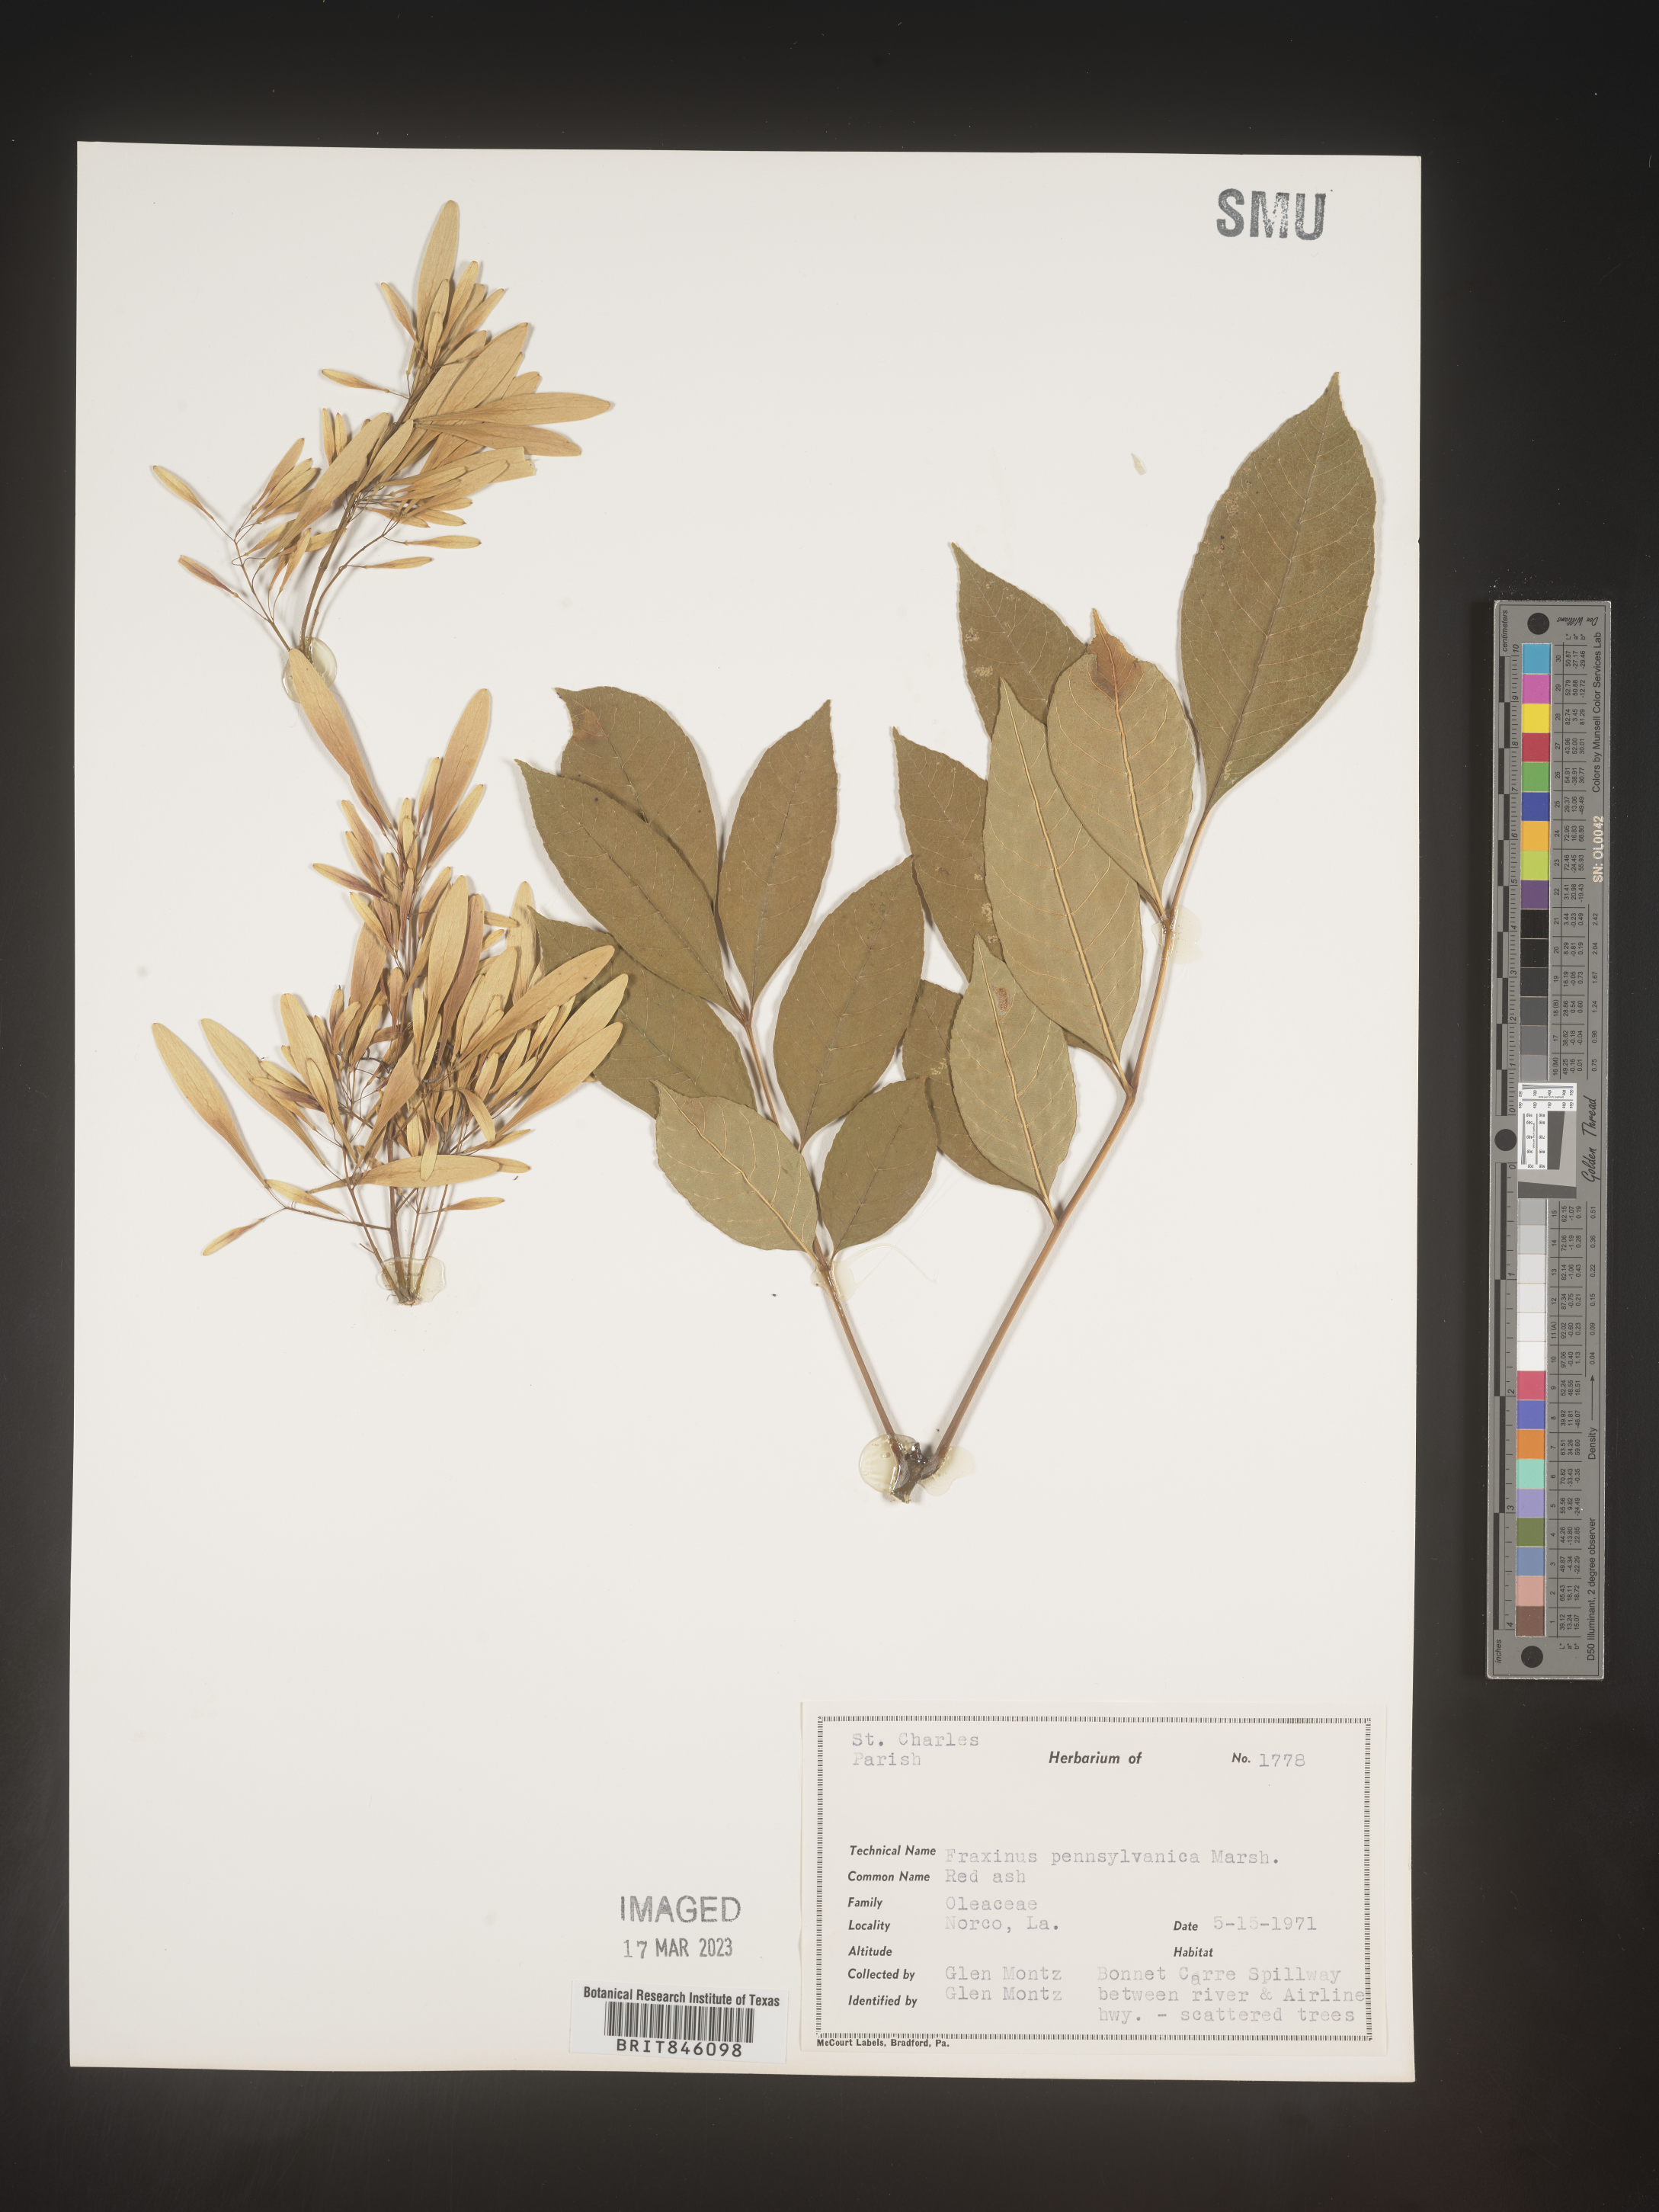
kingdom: Plantae
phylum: Tracheophyta
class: Magnoliopsida
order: Lamiales
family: Oleaceae
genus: Fraxinus
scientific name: Fraxinus pennsylvanica
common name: Green ash
